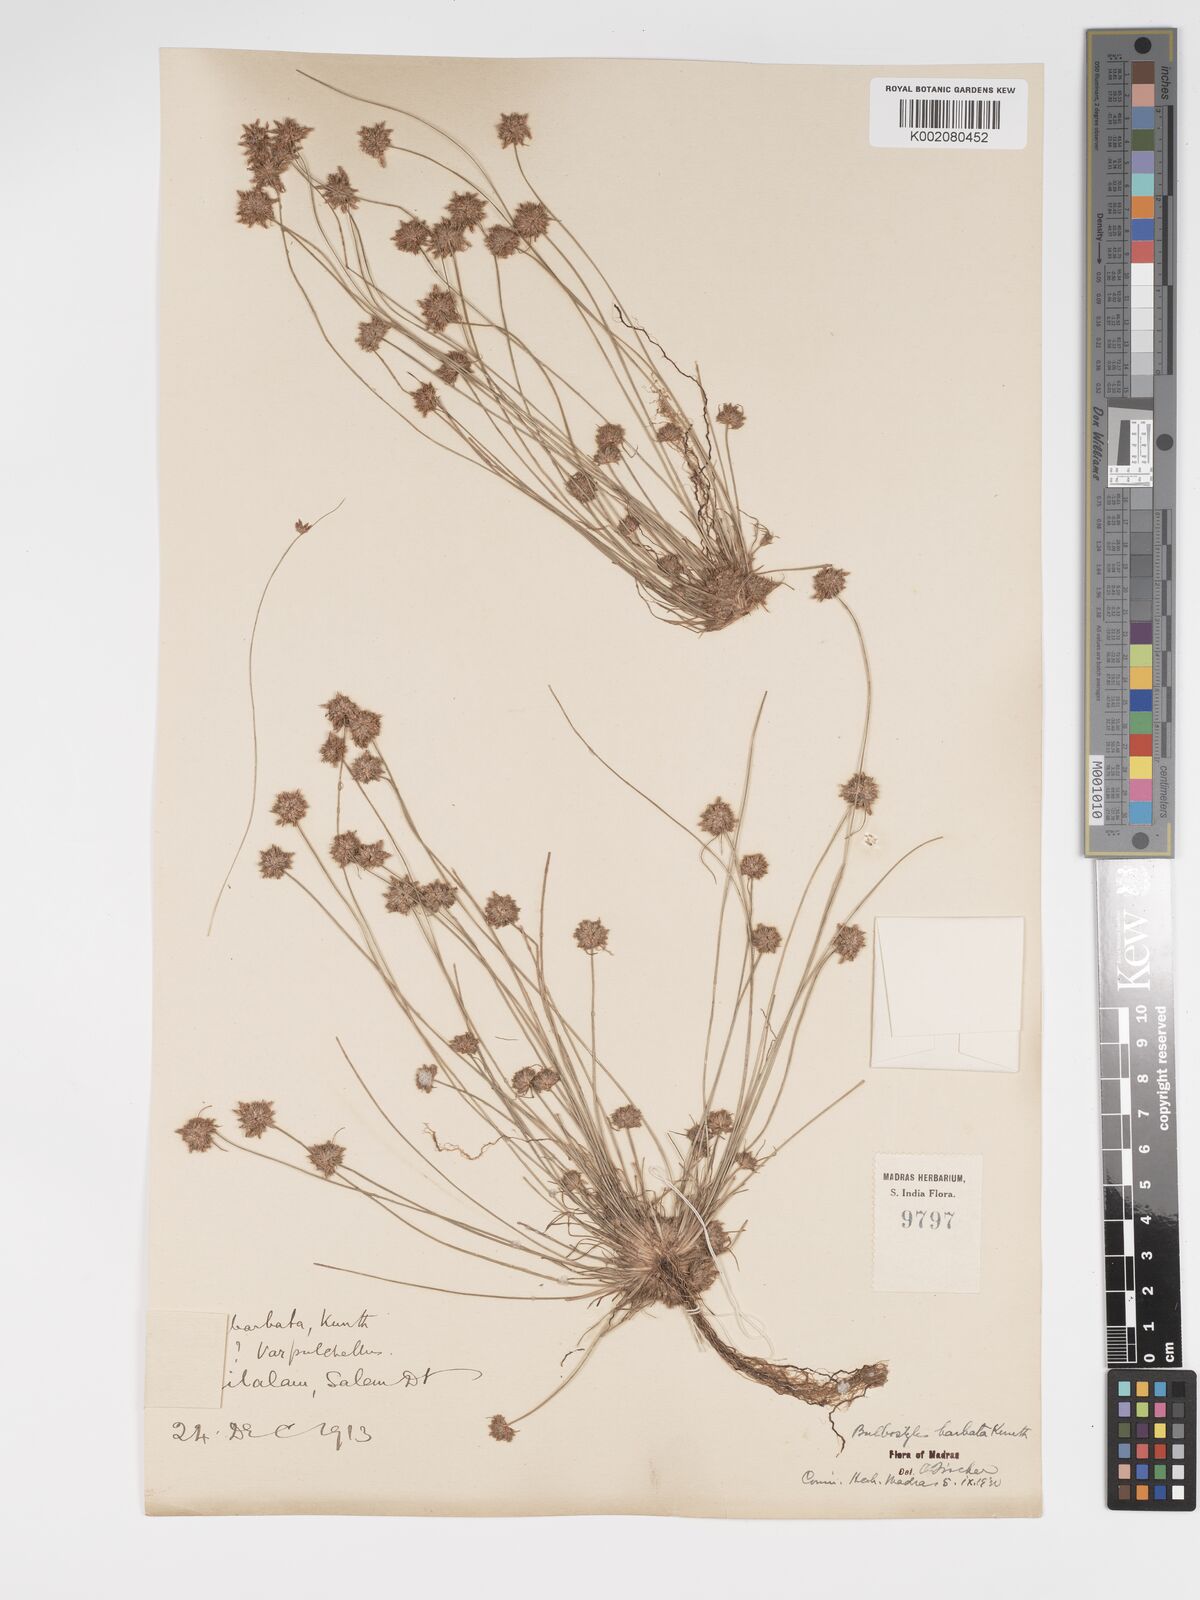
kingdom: Plantae
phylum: Tracheophyta
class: Liliopsida
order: Poales
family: Cyperaceae
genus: Bulbostylis
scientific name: Bulbostylis barbata
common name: Watergrass
